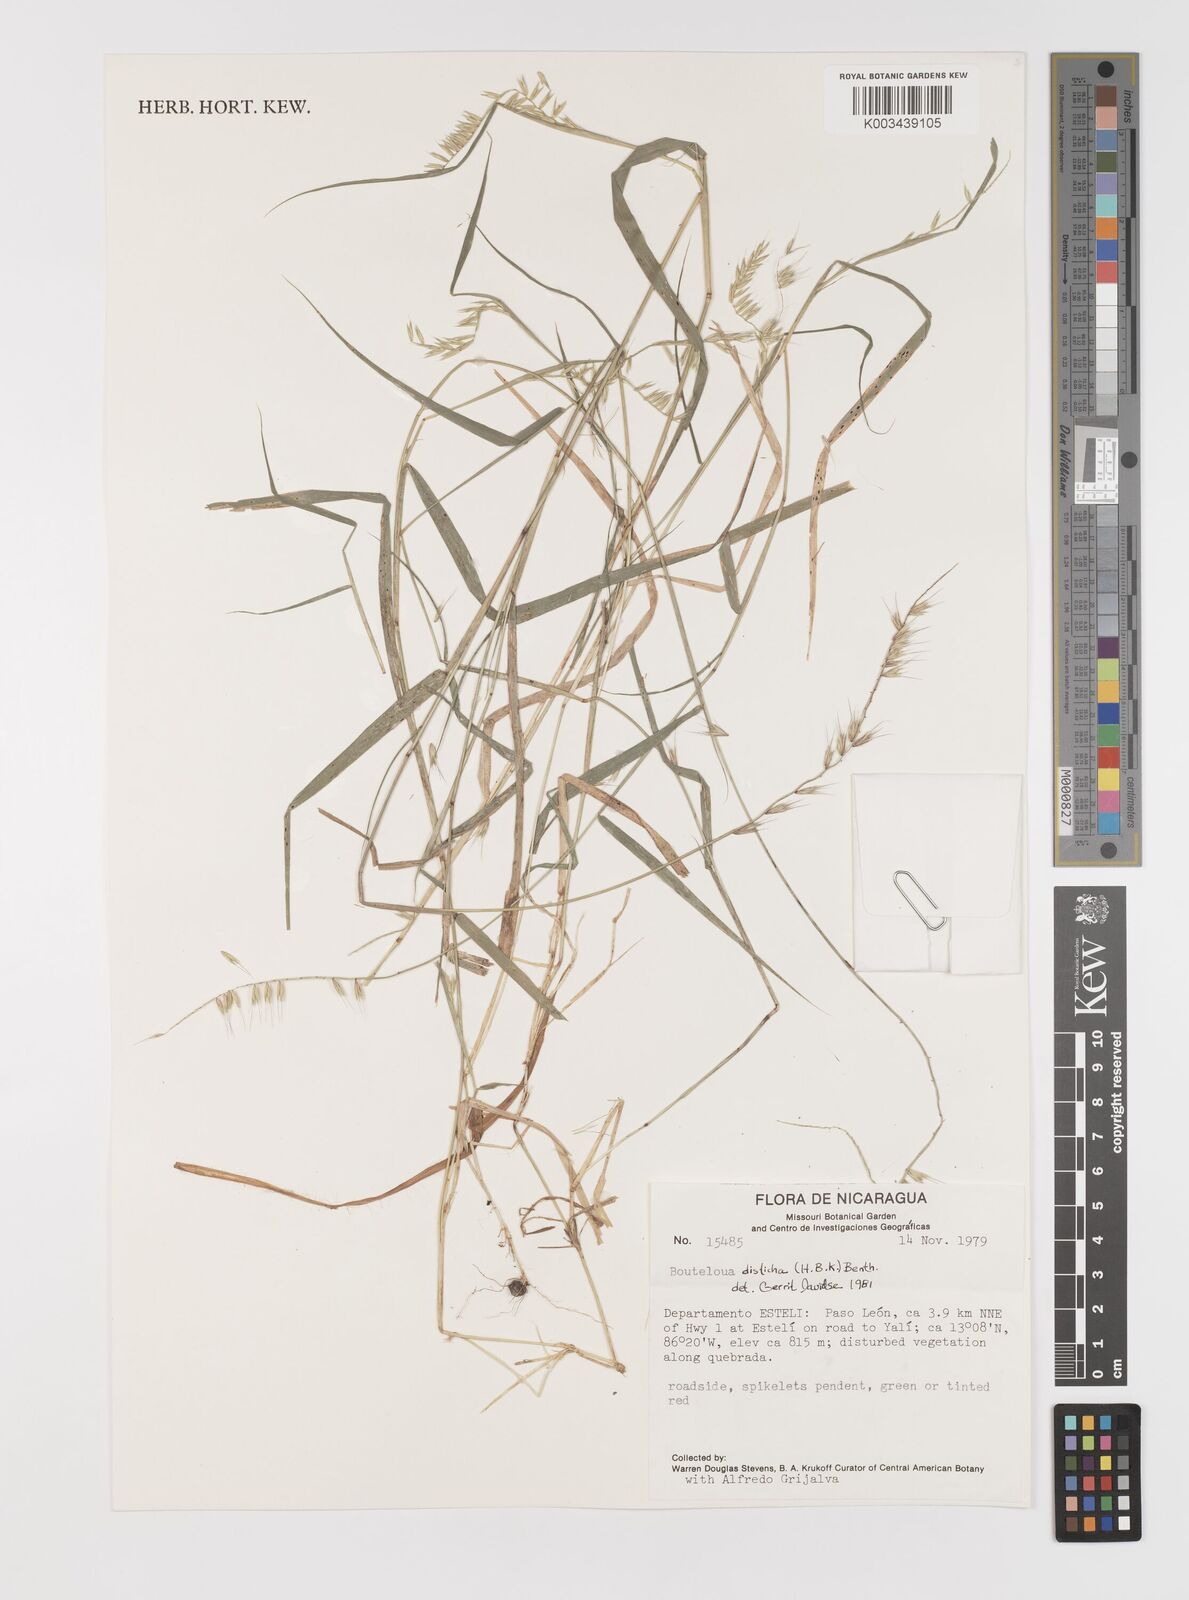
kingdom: Plantae
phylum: Tracheophyta
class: Liliopsida
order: Poales
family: Poaceae
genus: Bouteloua
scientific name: Bouteloua disticha
